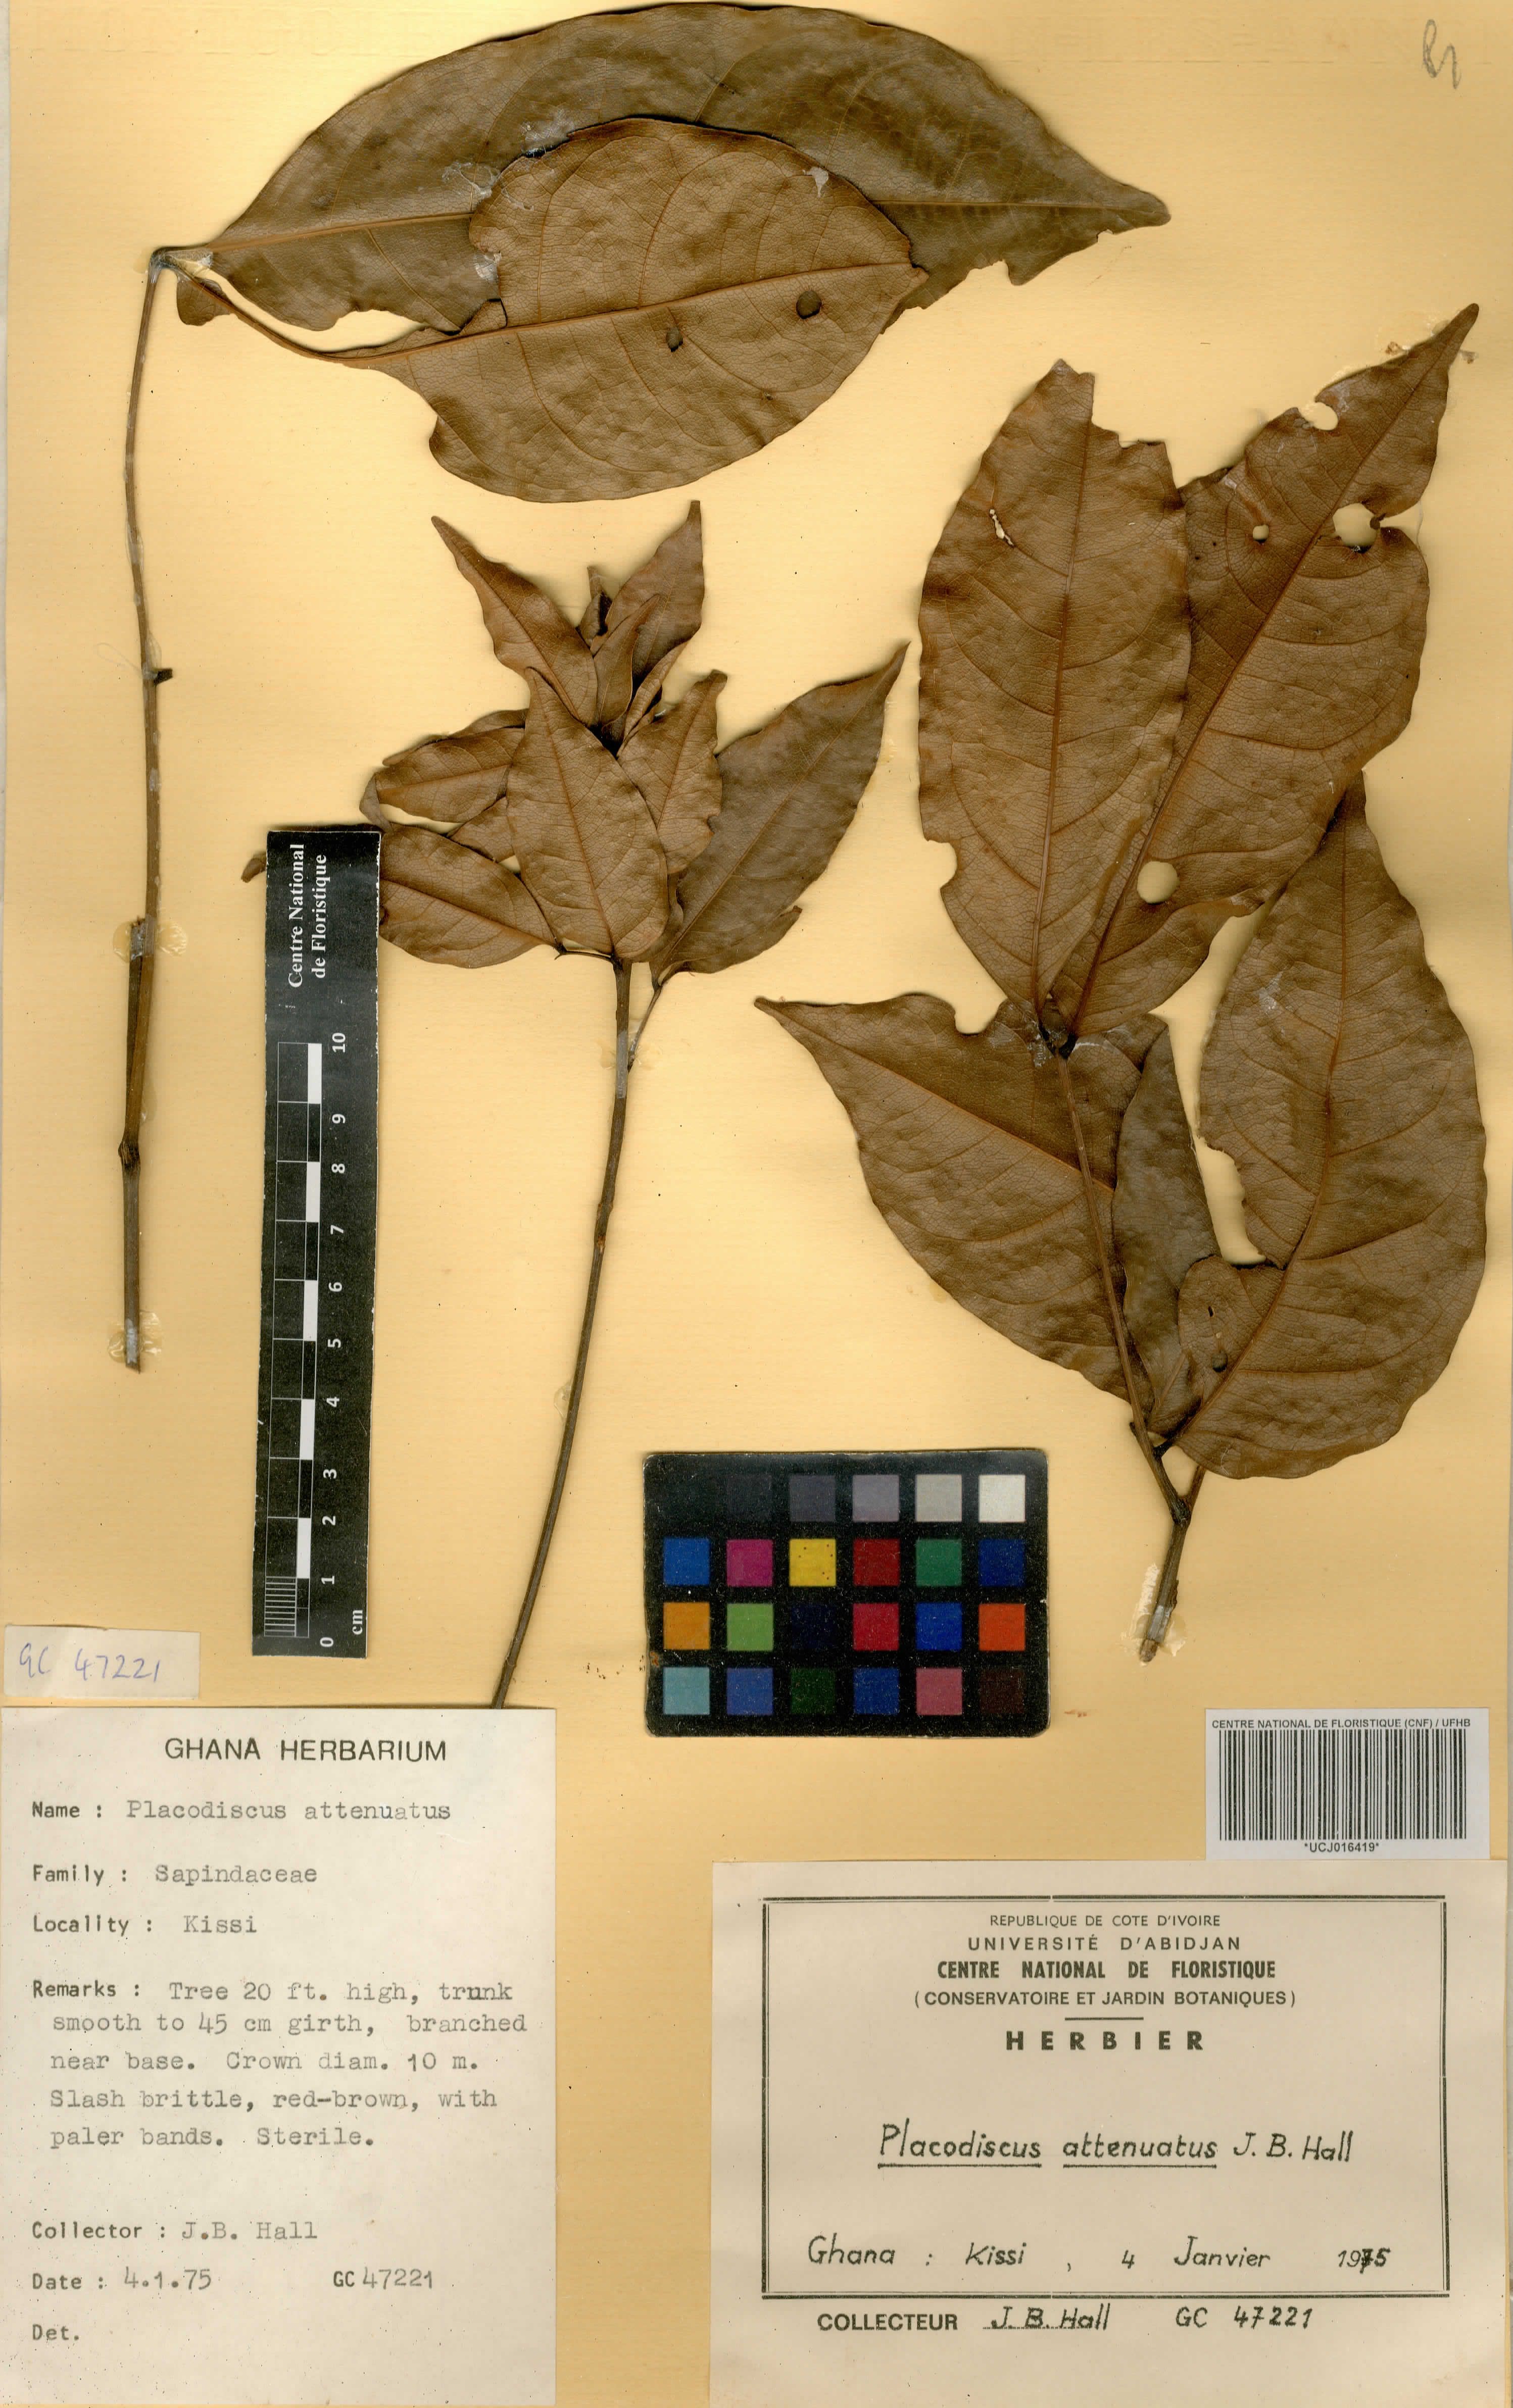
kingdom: Plantae
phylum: Tracheophyta
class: Magnoliopsida
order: Sapindales
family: Sapindaceae
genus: Placodiscus
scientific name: Placodiscus attenuatus
